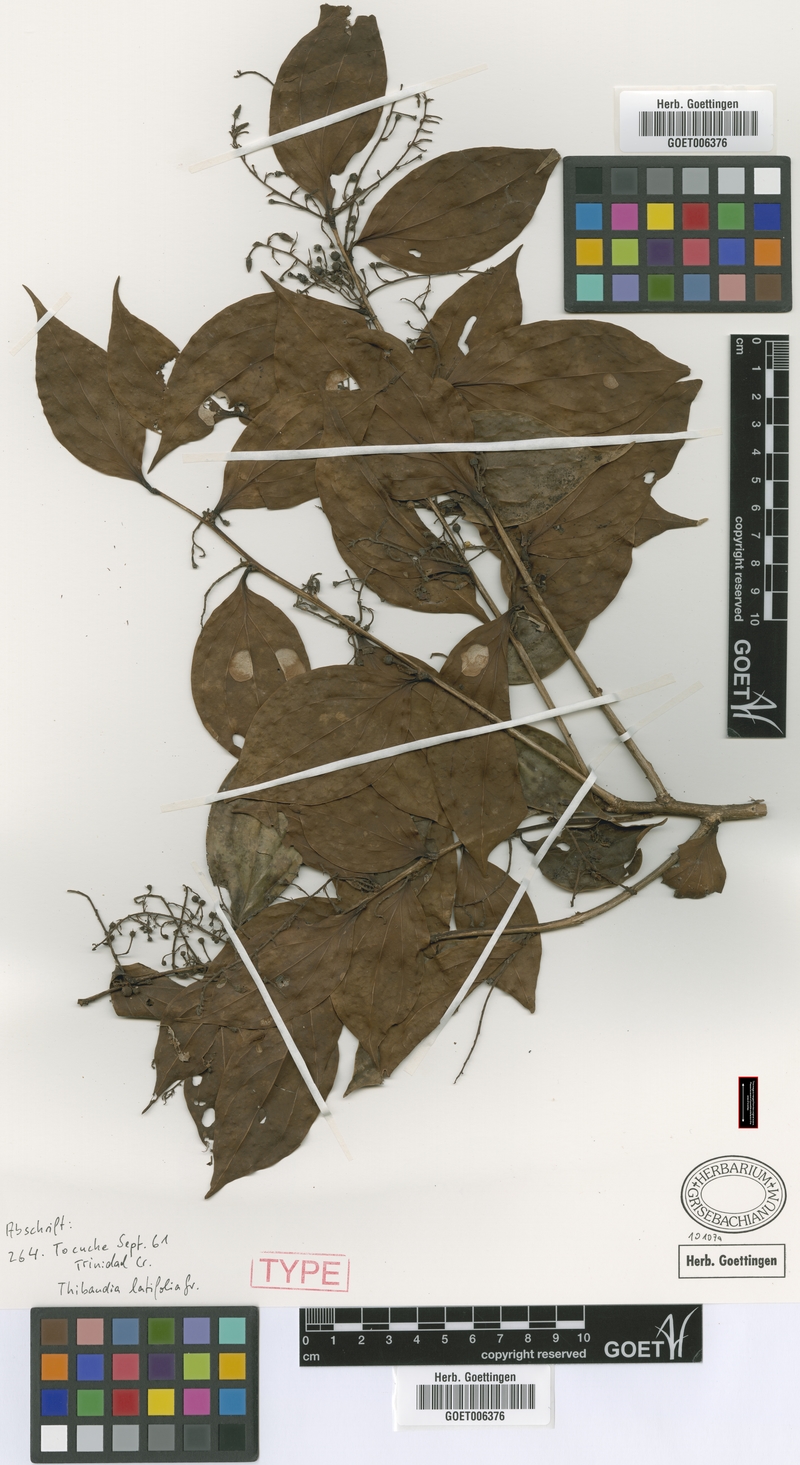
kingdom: Plantae
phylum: Tracheophyta
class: Magnoliopsida
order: Ericales
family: Ericaceae
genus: Vaccinium
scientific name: Vaccinium latifolium
